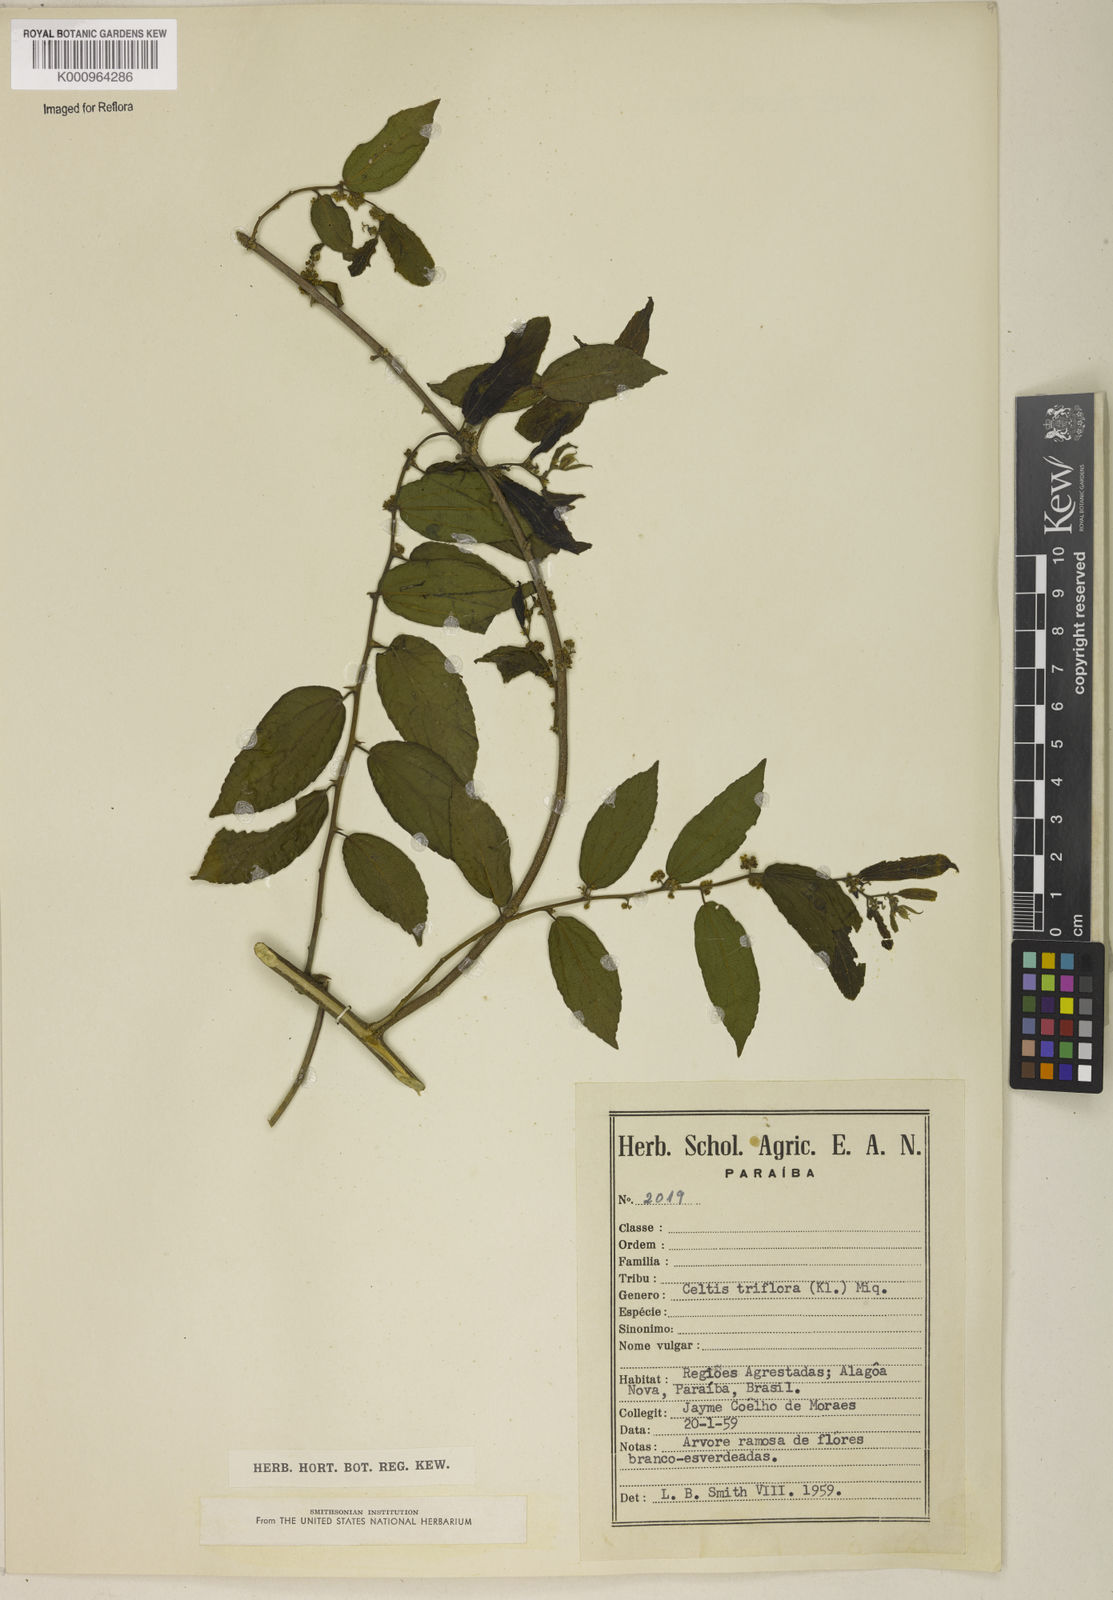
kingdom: Plantae
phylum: Tracheophyta
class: Magnoliopsida
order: Rosales
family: Cannabaceae
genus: Celtis
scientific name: Celtis iguanaea
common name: Iguana hackberry
